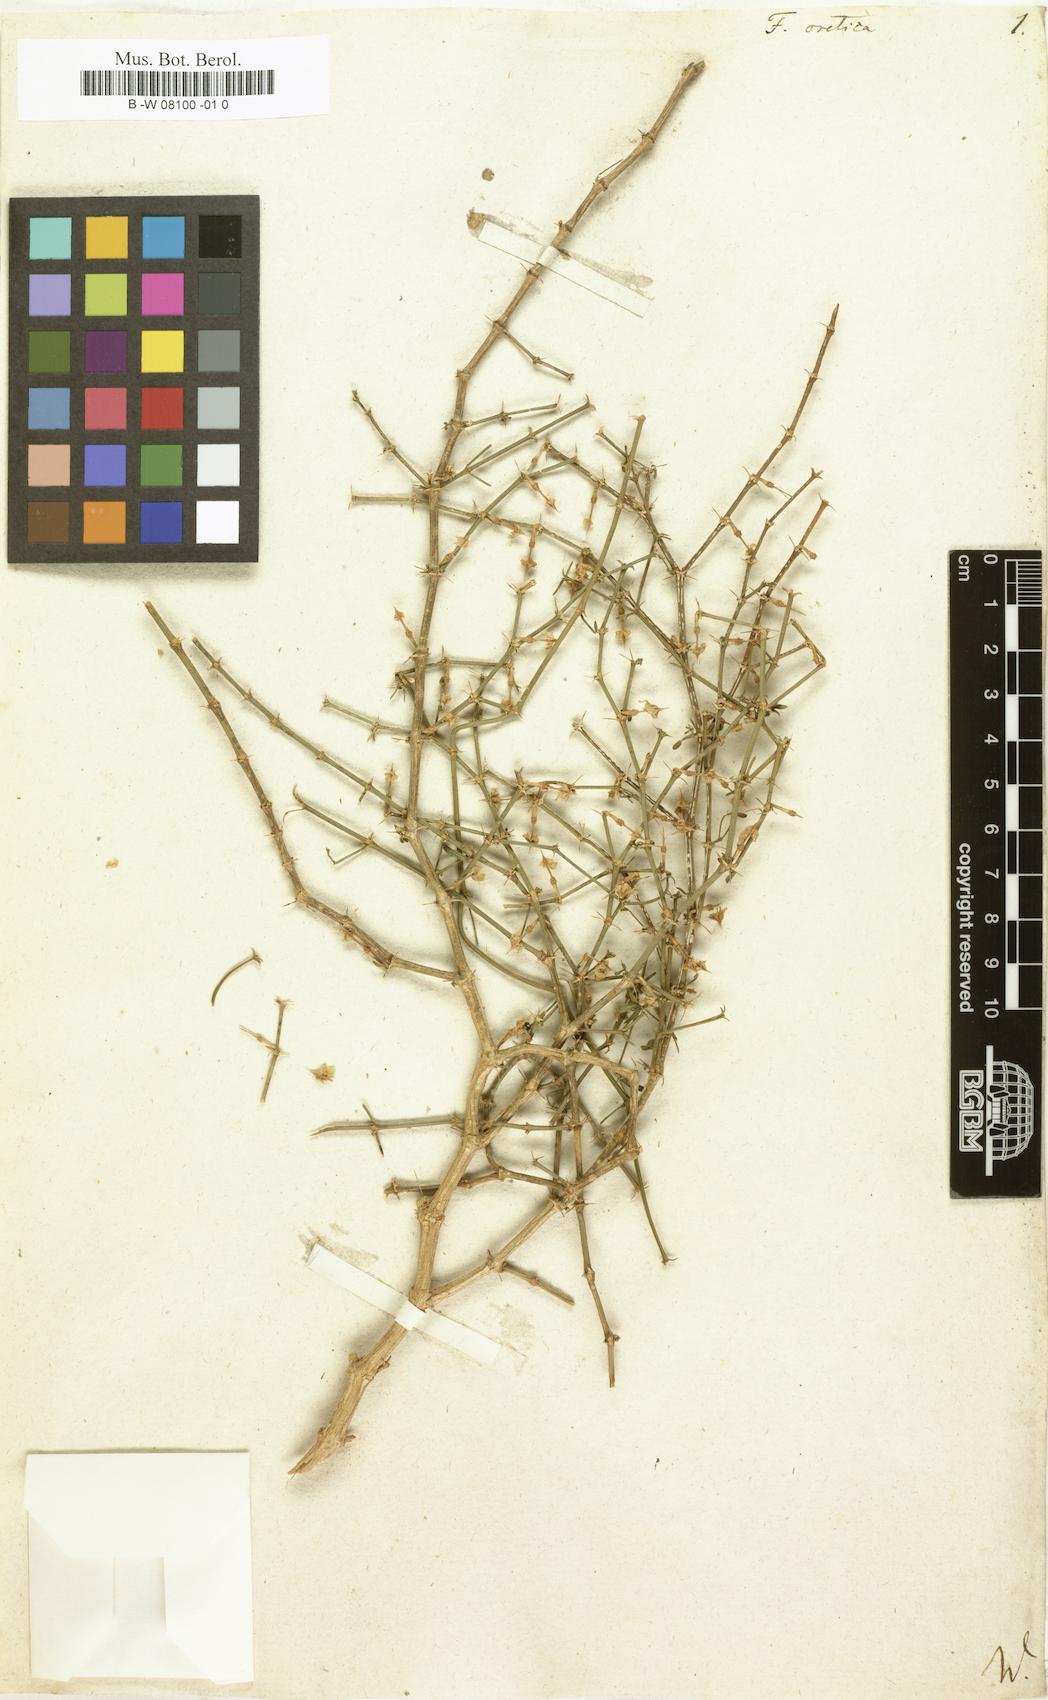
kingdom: Plantae
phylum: Tracheophyta
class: Magnoliopsida
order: Zygophyllales
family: Zygophyllaceae
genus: Fagonia
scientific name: Fagonia cretica
